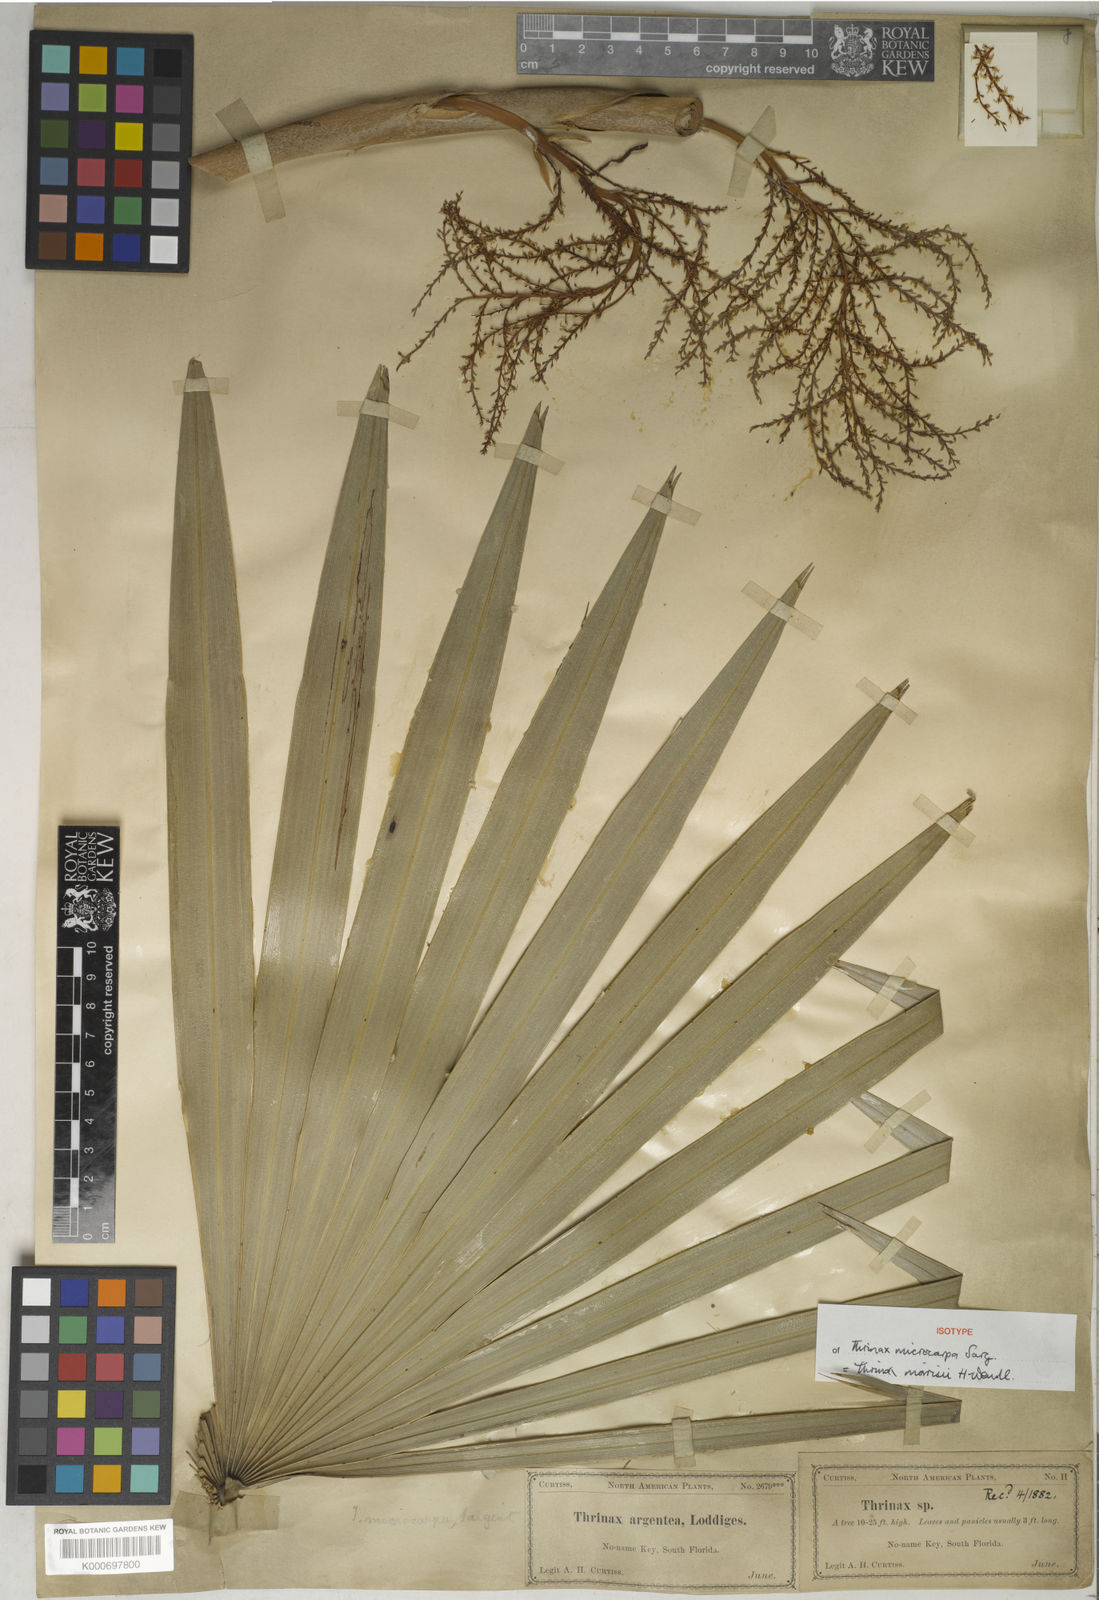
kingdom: Plantae
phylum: Tracheophyta
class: Liliopsida
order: Arecales
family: Arecaceae
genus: Leucothrinax
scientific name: Leucothrinax morrisii
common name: Key palm
